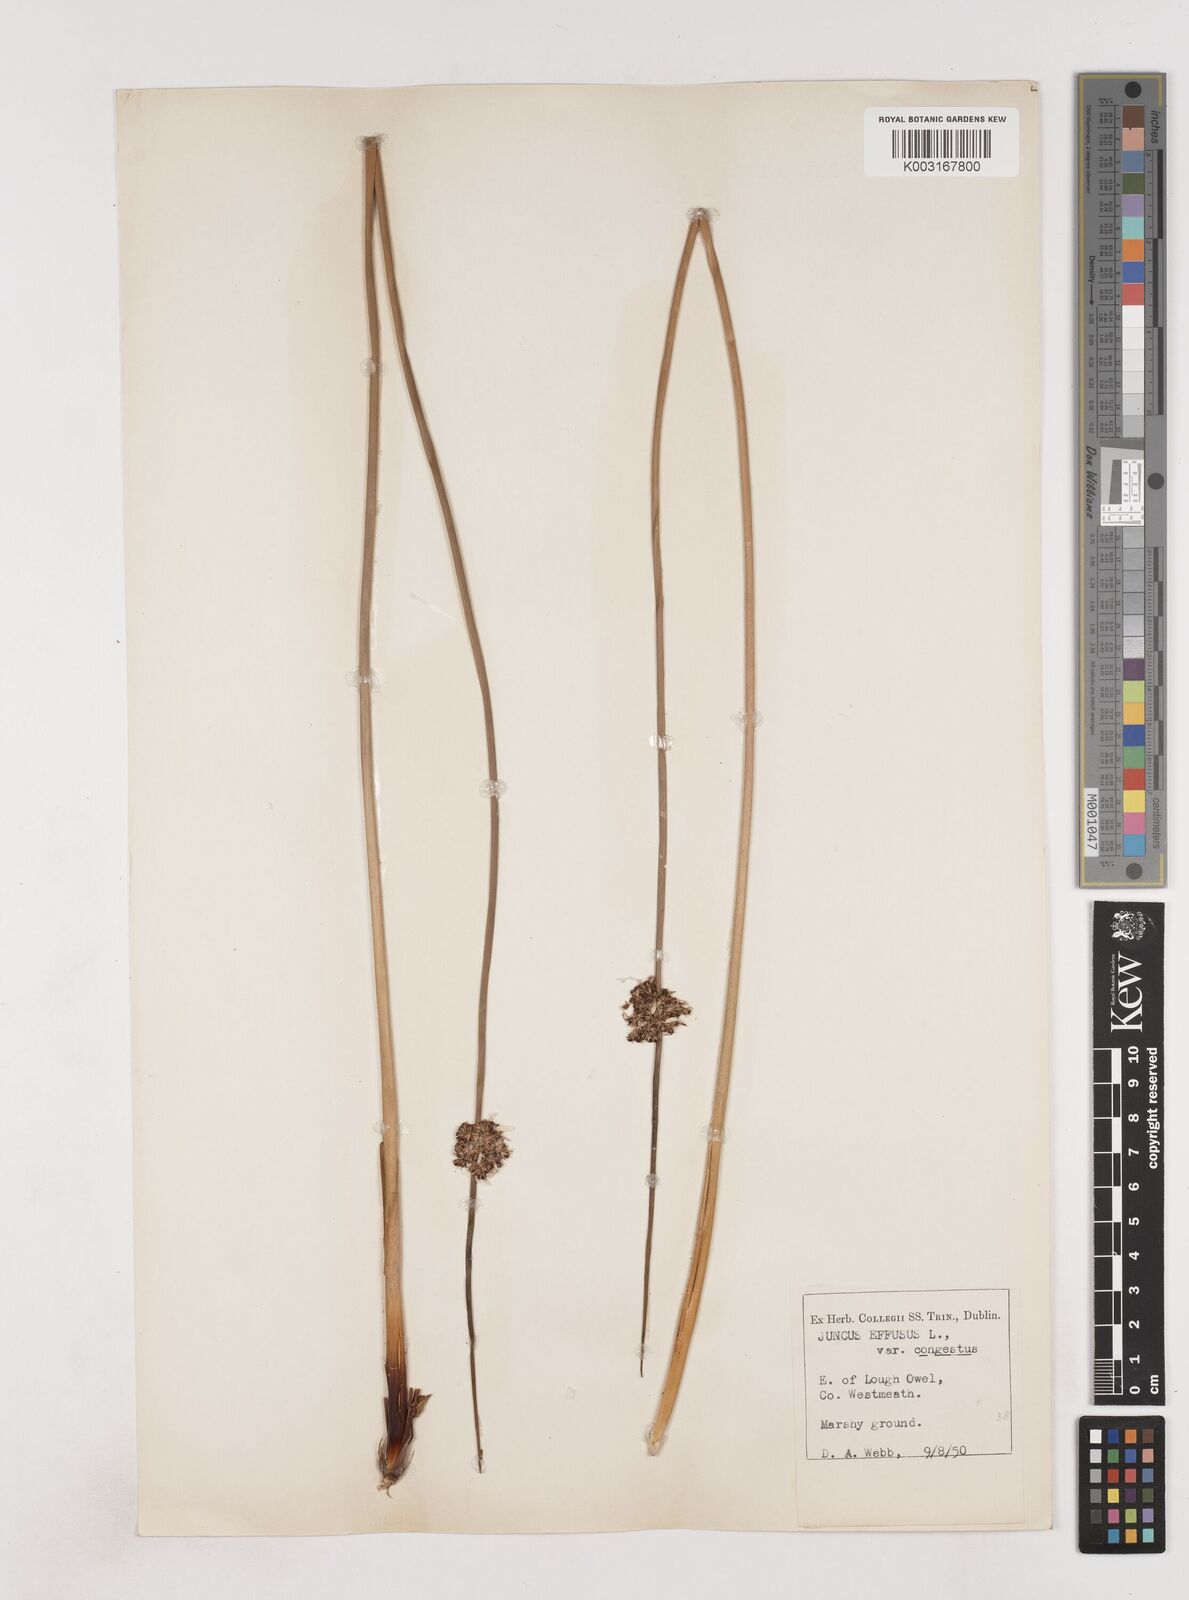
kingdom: Plantae
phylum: Tracheophyta
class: Liliopsida
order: Poales
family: Juncaceae
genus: Juncus
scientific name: Juncus effusus
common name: Soft rush
